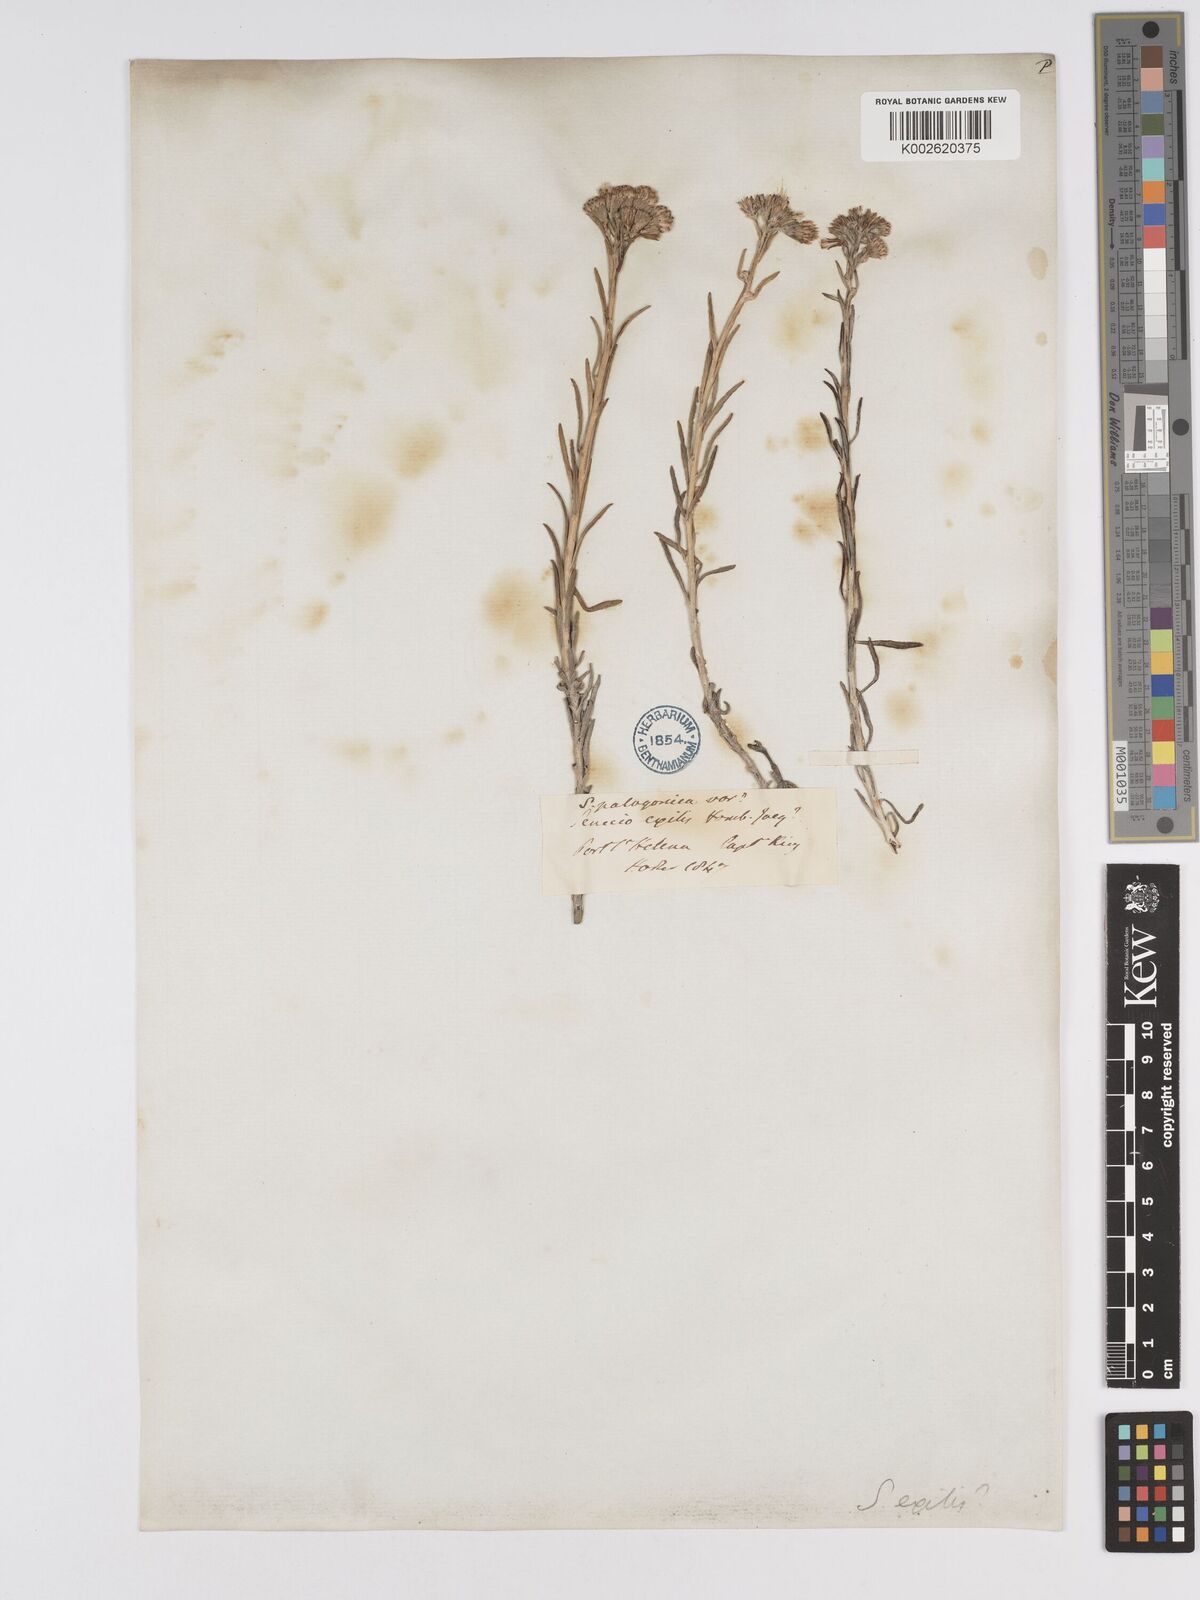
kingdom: Plantae
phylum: Tracheophyta
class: Magnoliopsida
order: Asterales
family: Asteraceae
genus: Senecio
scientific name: Senecio patagonicus
